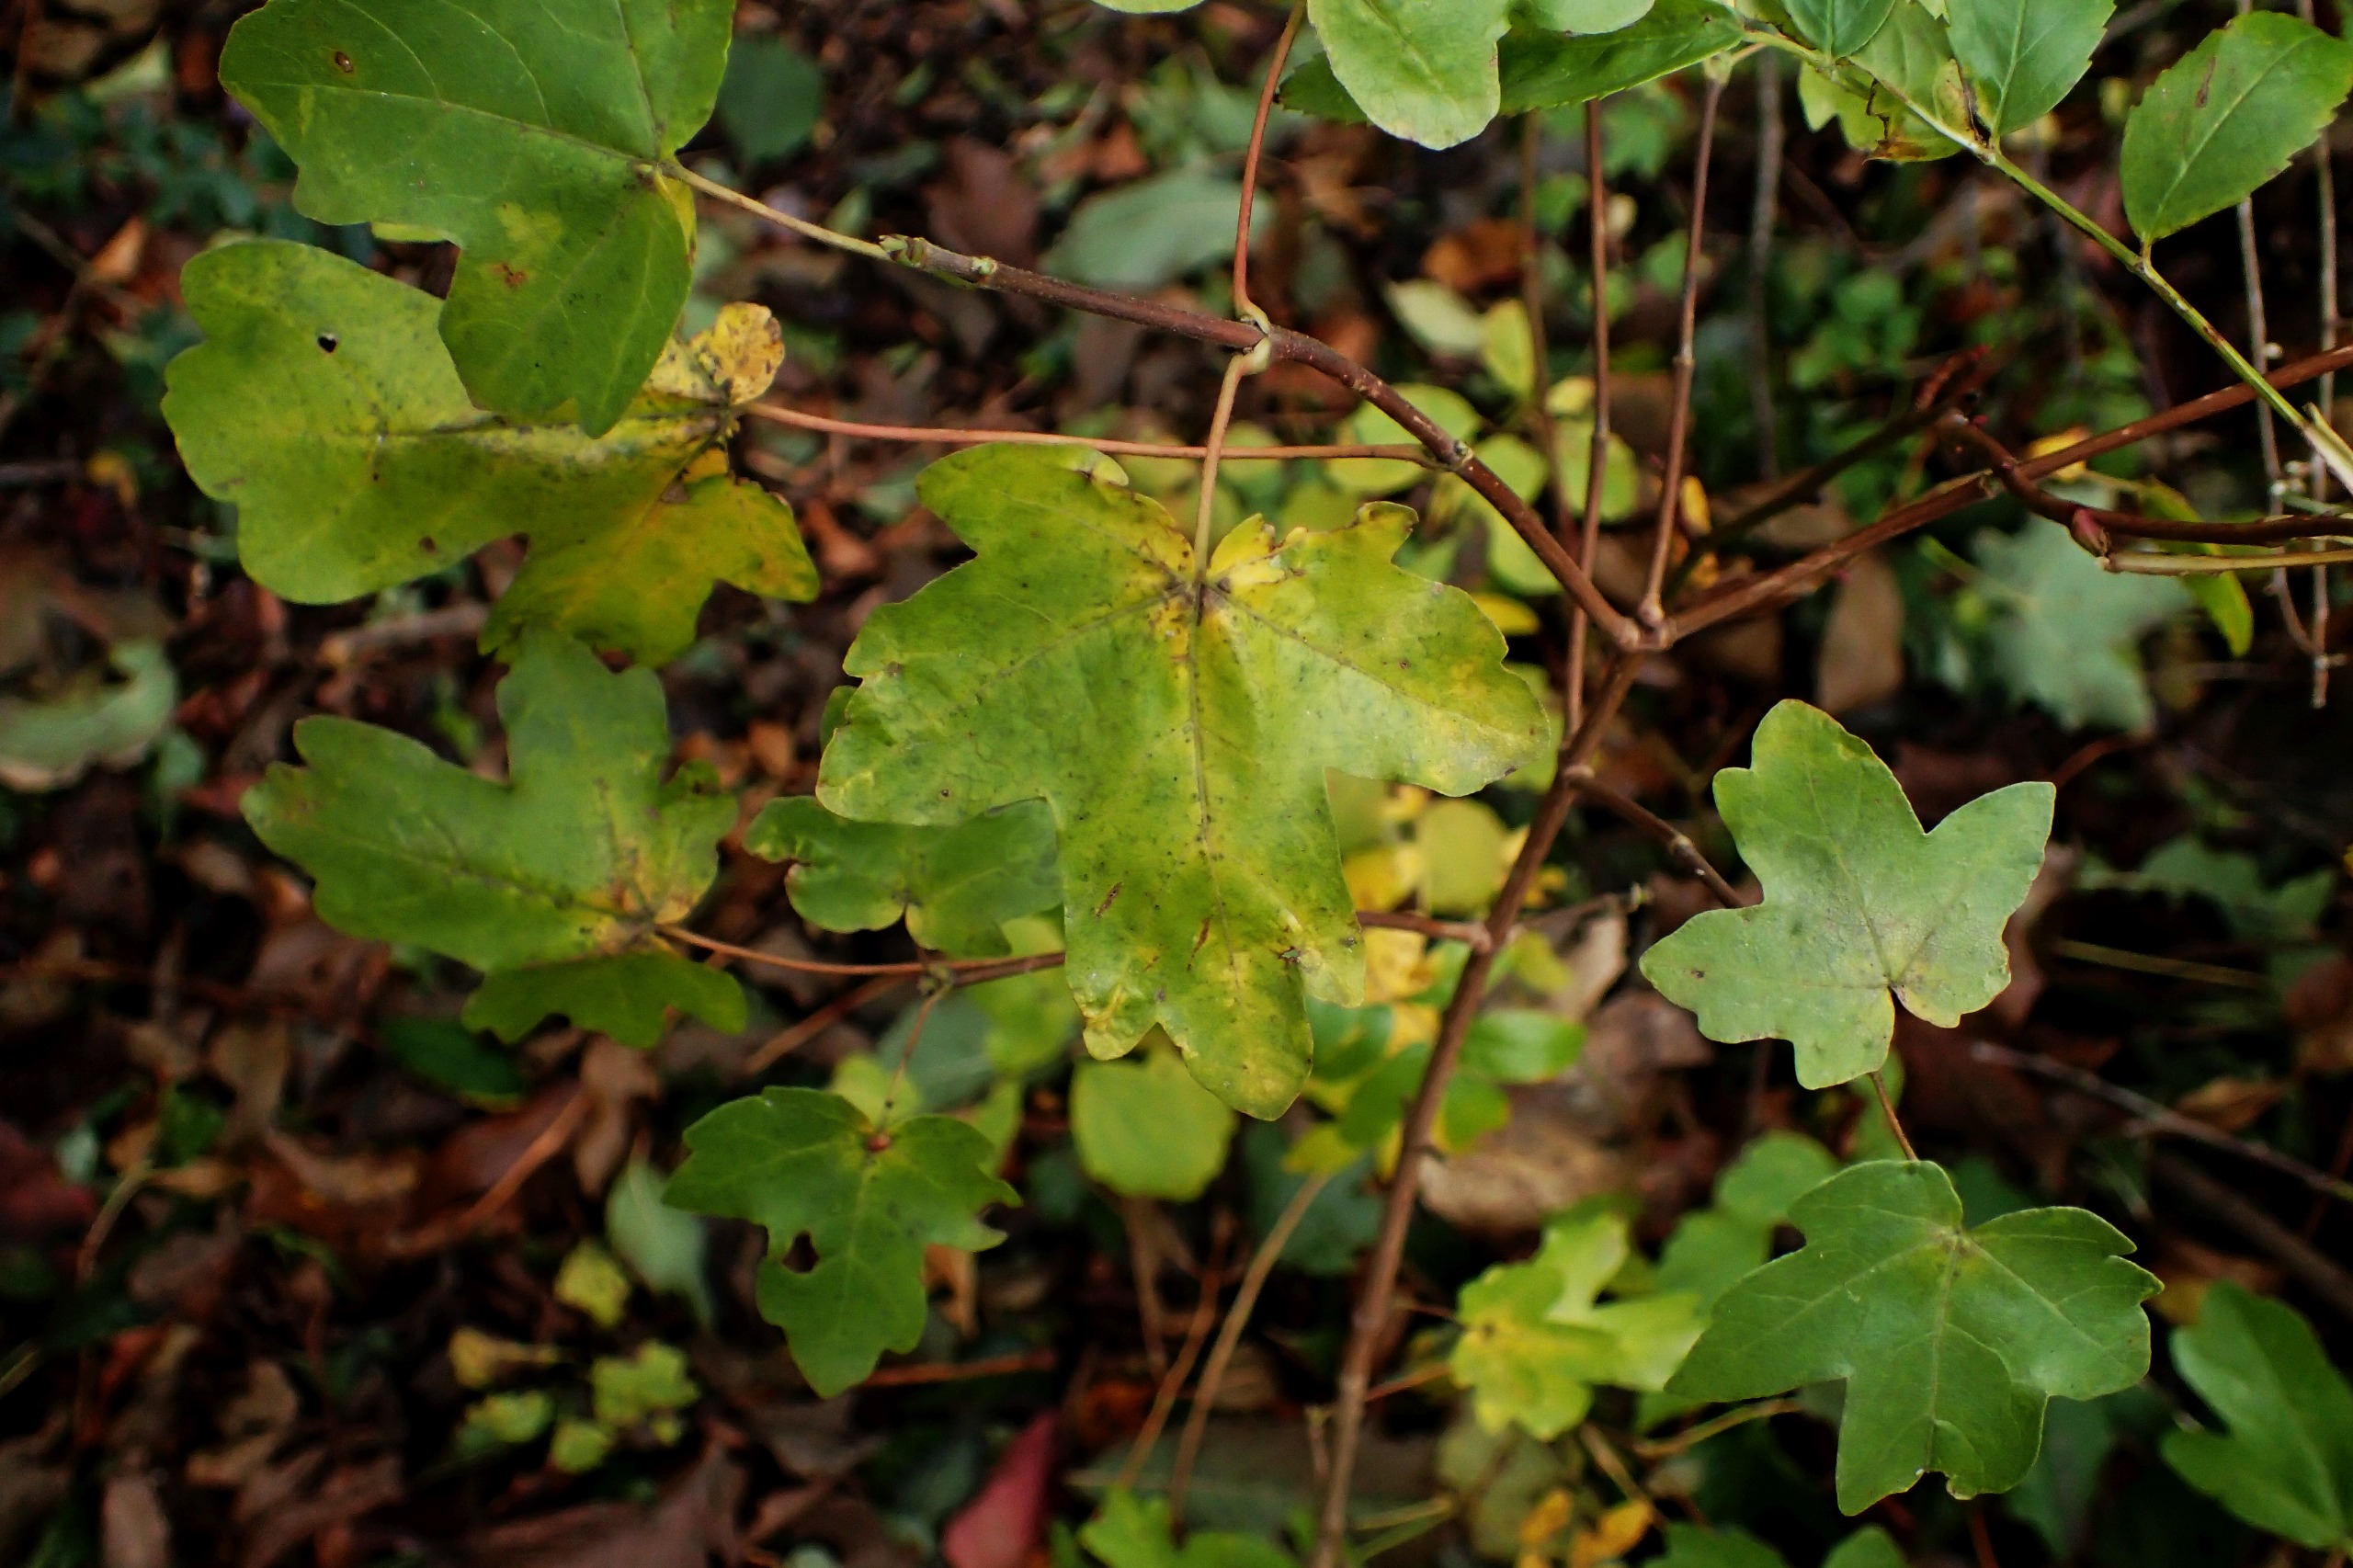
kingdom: Plantae
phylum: Tracheophyta
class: Magnoliopsida
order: Sapindales
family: Sapindaceae
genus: Acer
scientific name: Acer campestre
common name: Navr
